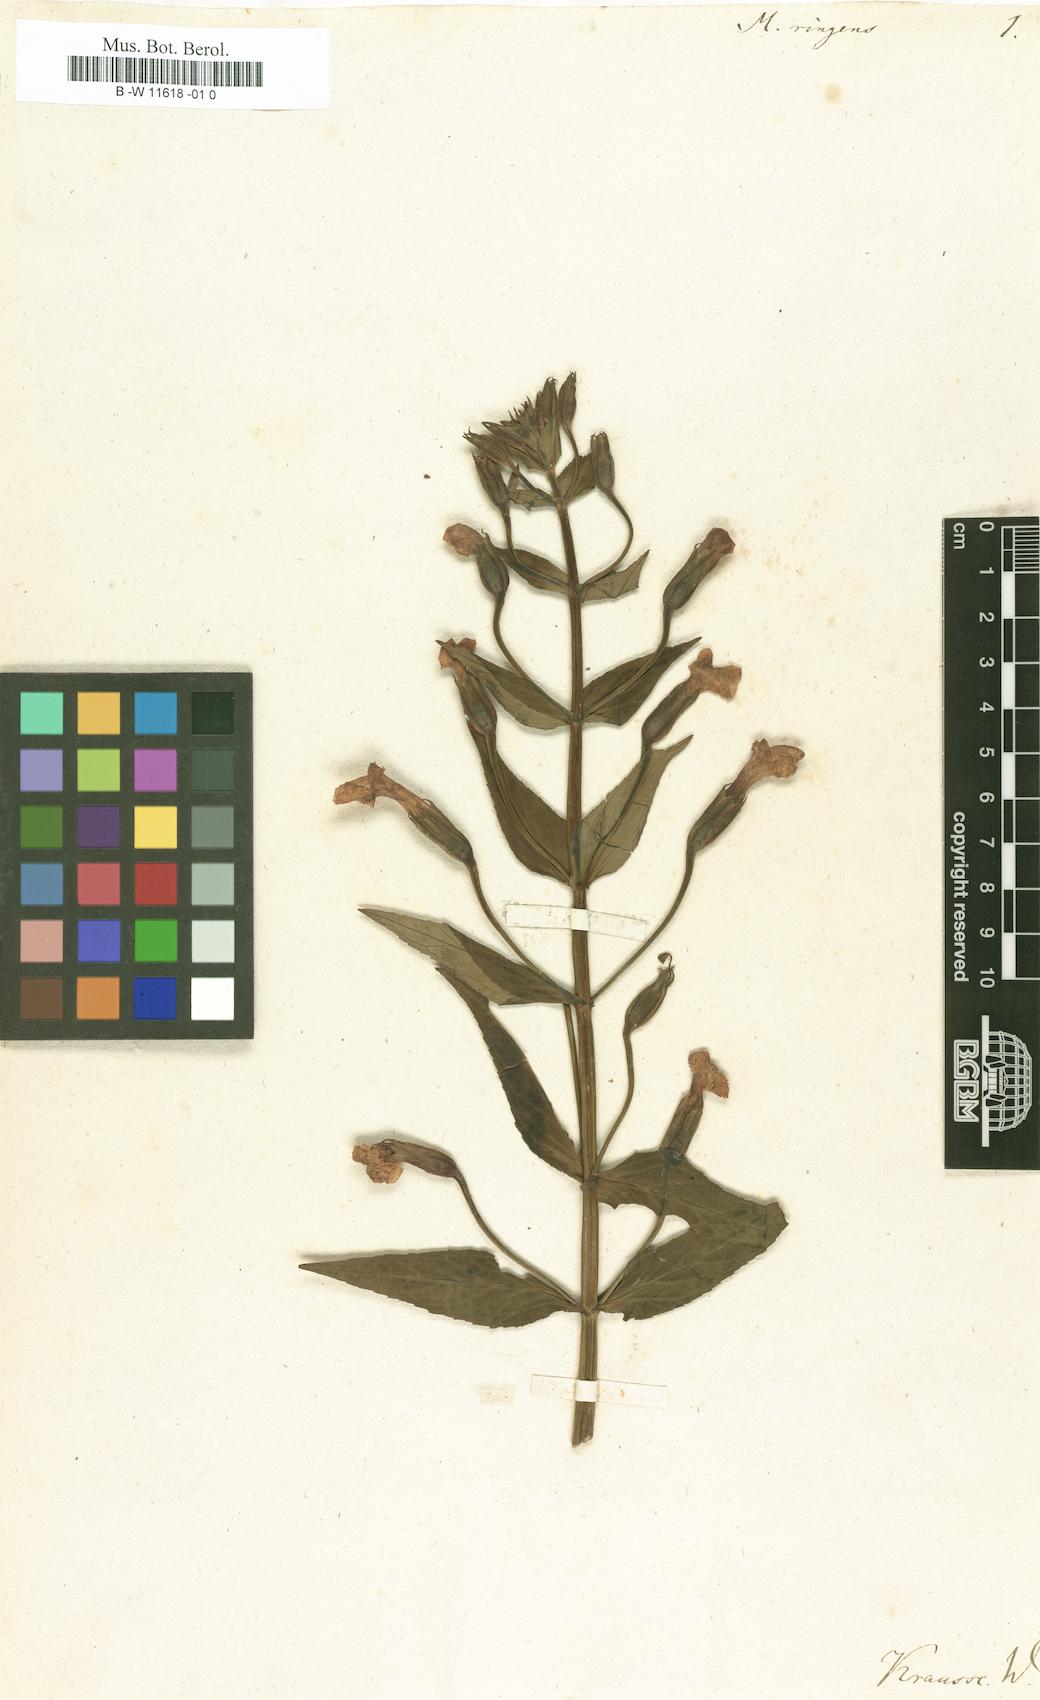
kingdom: Plantae
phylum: Tracheophyta
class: Magnoliopsida
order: Lamiales
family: Phrymaceae
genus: Mimulus
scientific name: Mimulus ringens
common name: Allegheny monkeyflower
